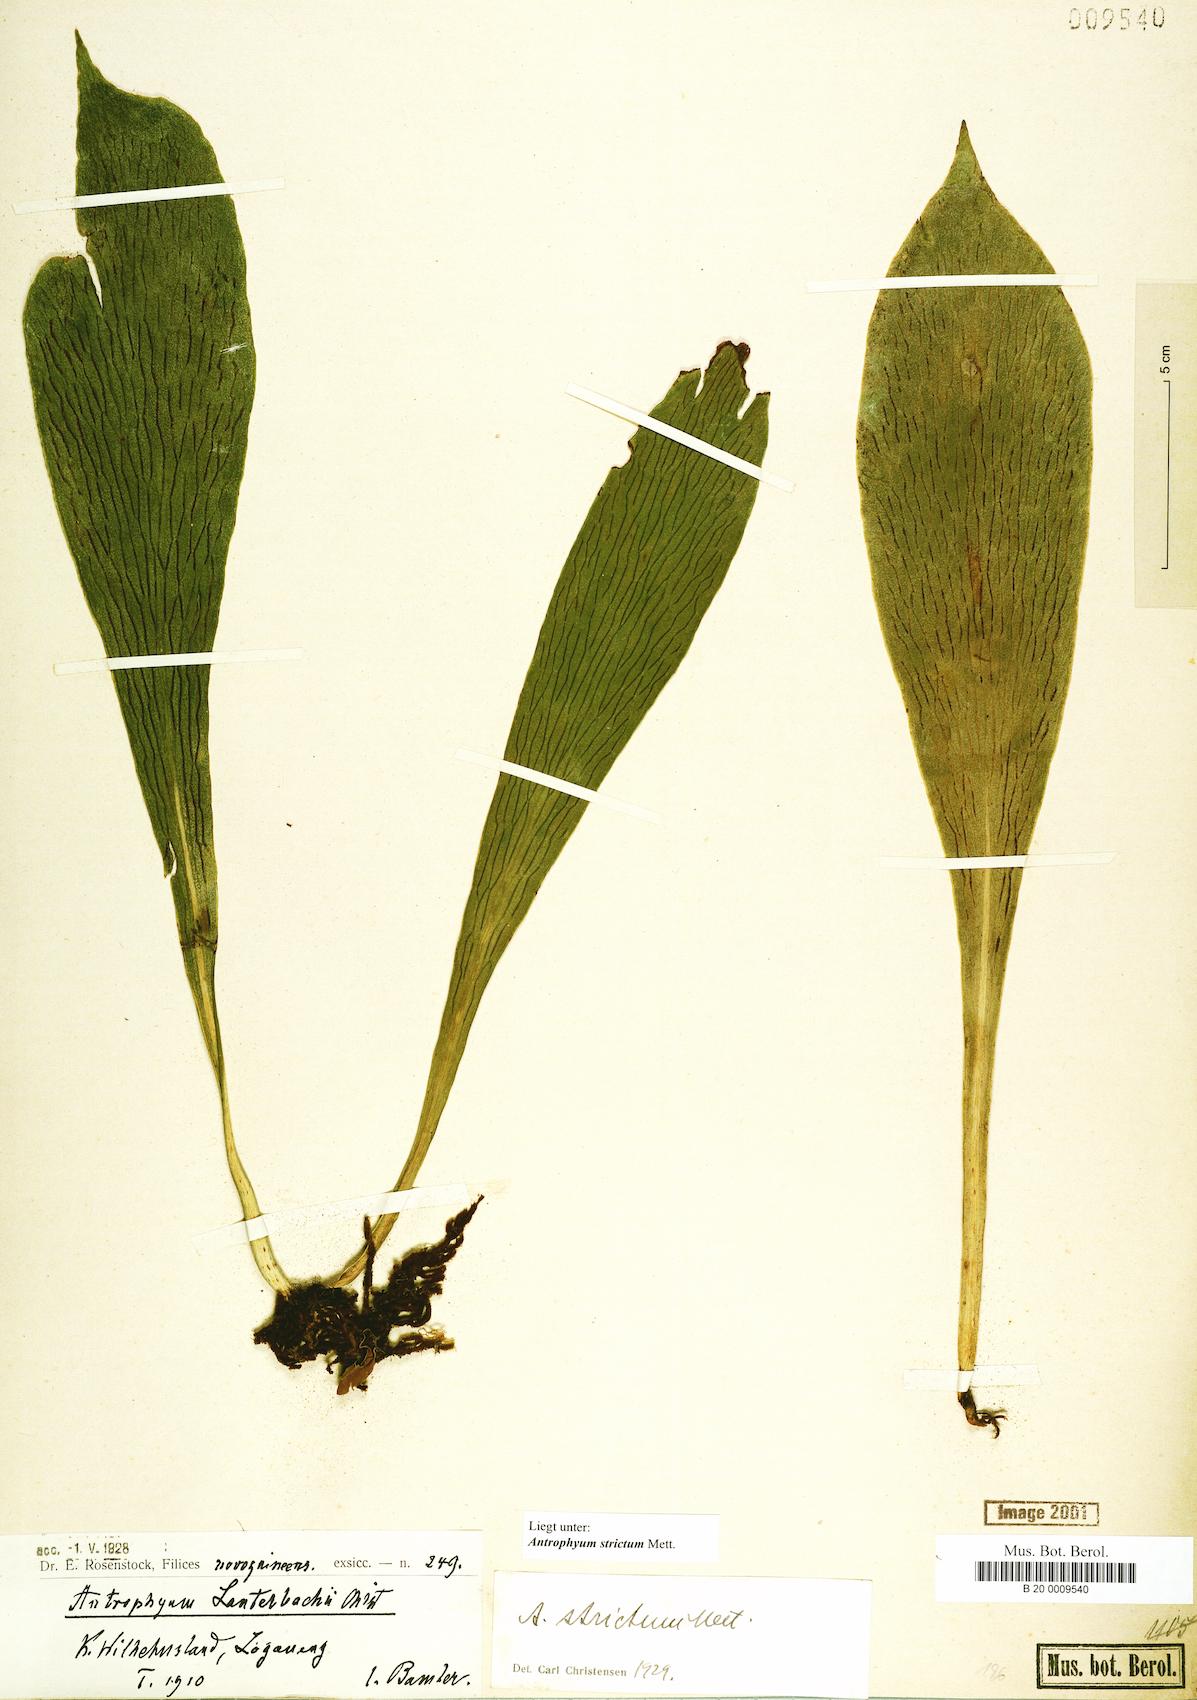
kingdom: Plantae
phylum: Tracheophyta
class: Polypodiopsida
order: Polypodiales
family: Pteridaceae
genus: Antrophyum
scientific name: Antrophyum strictum
